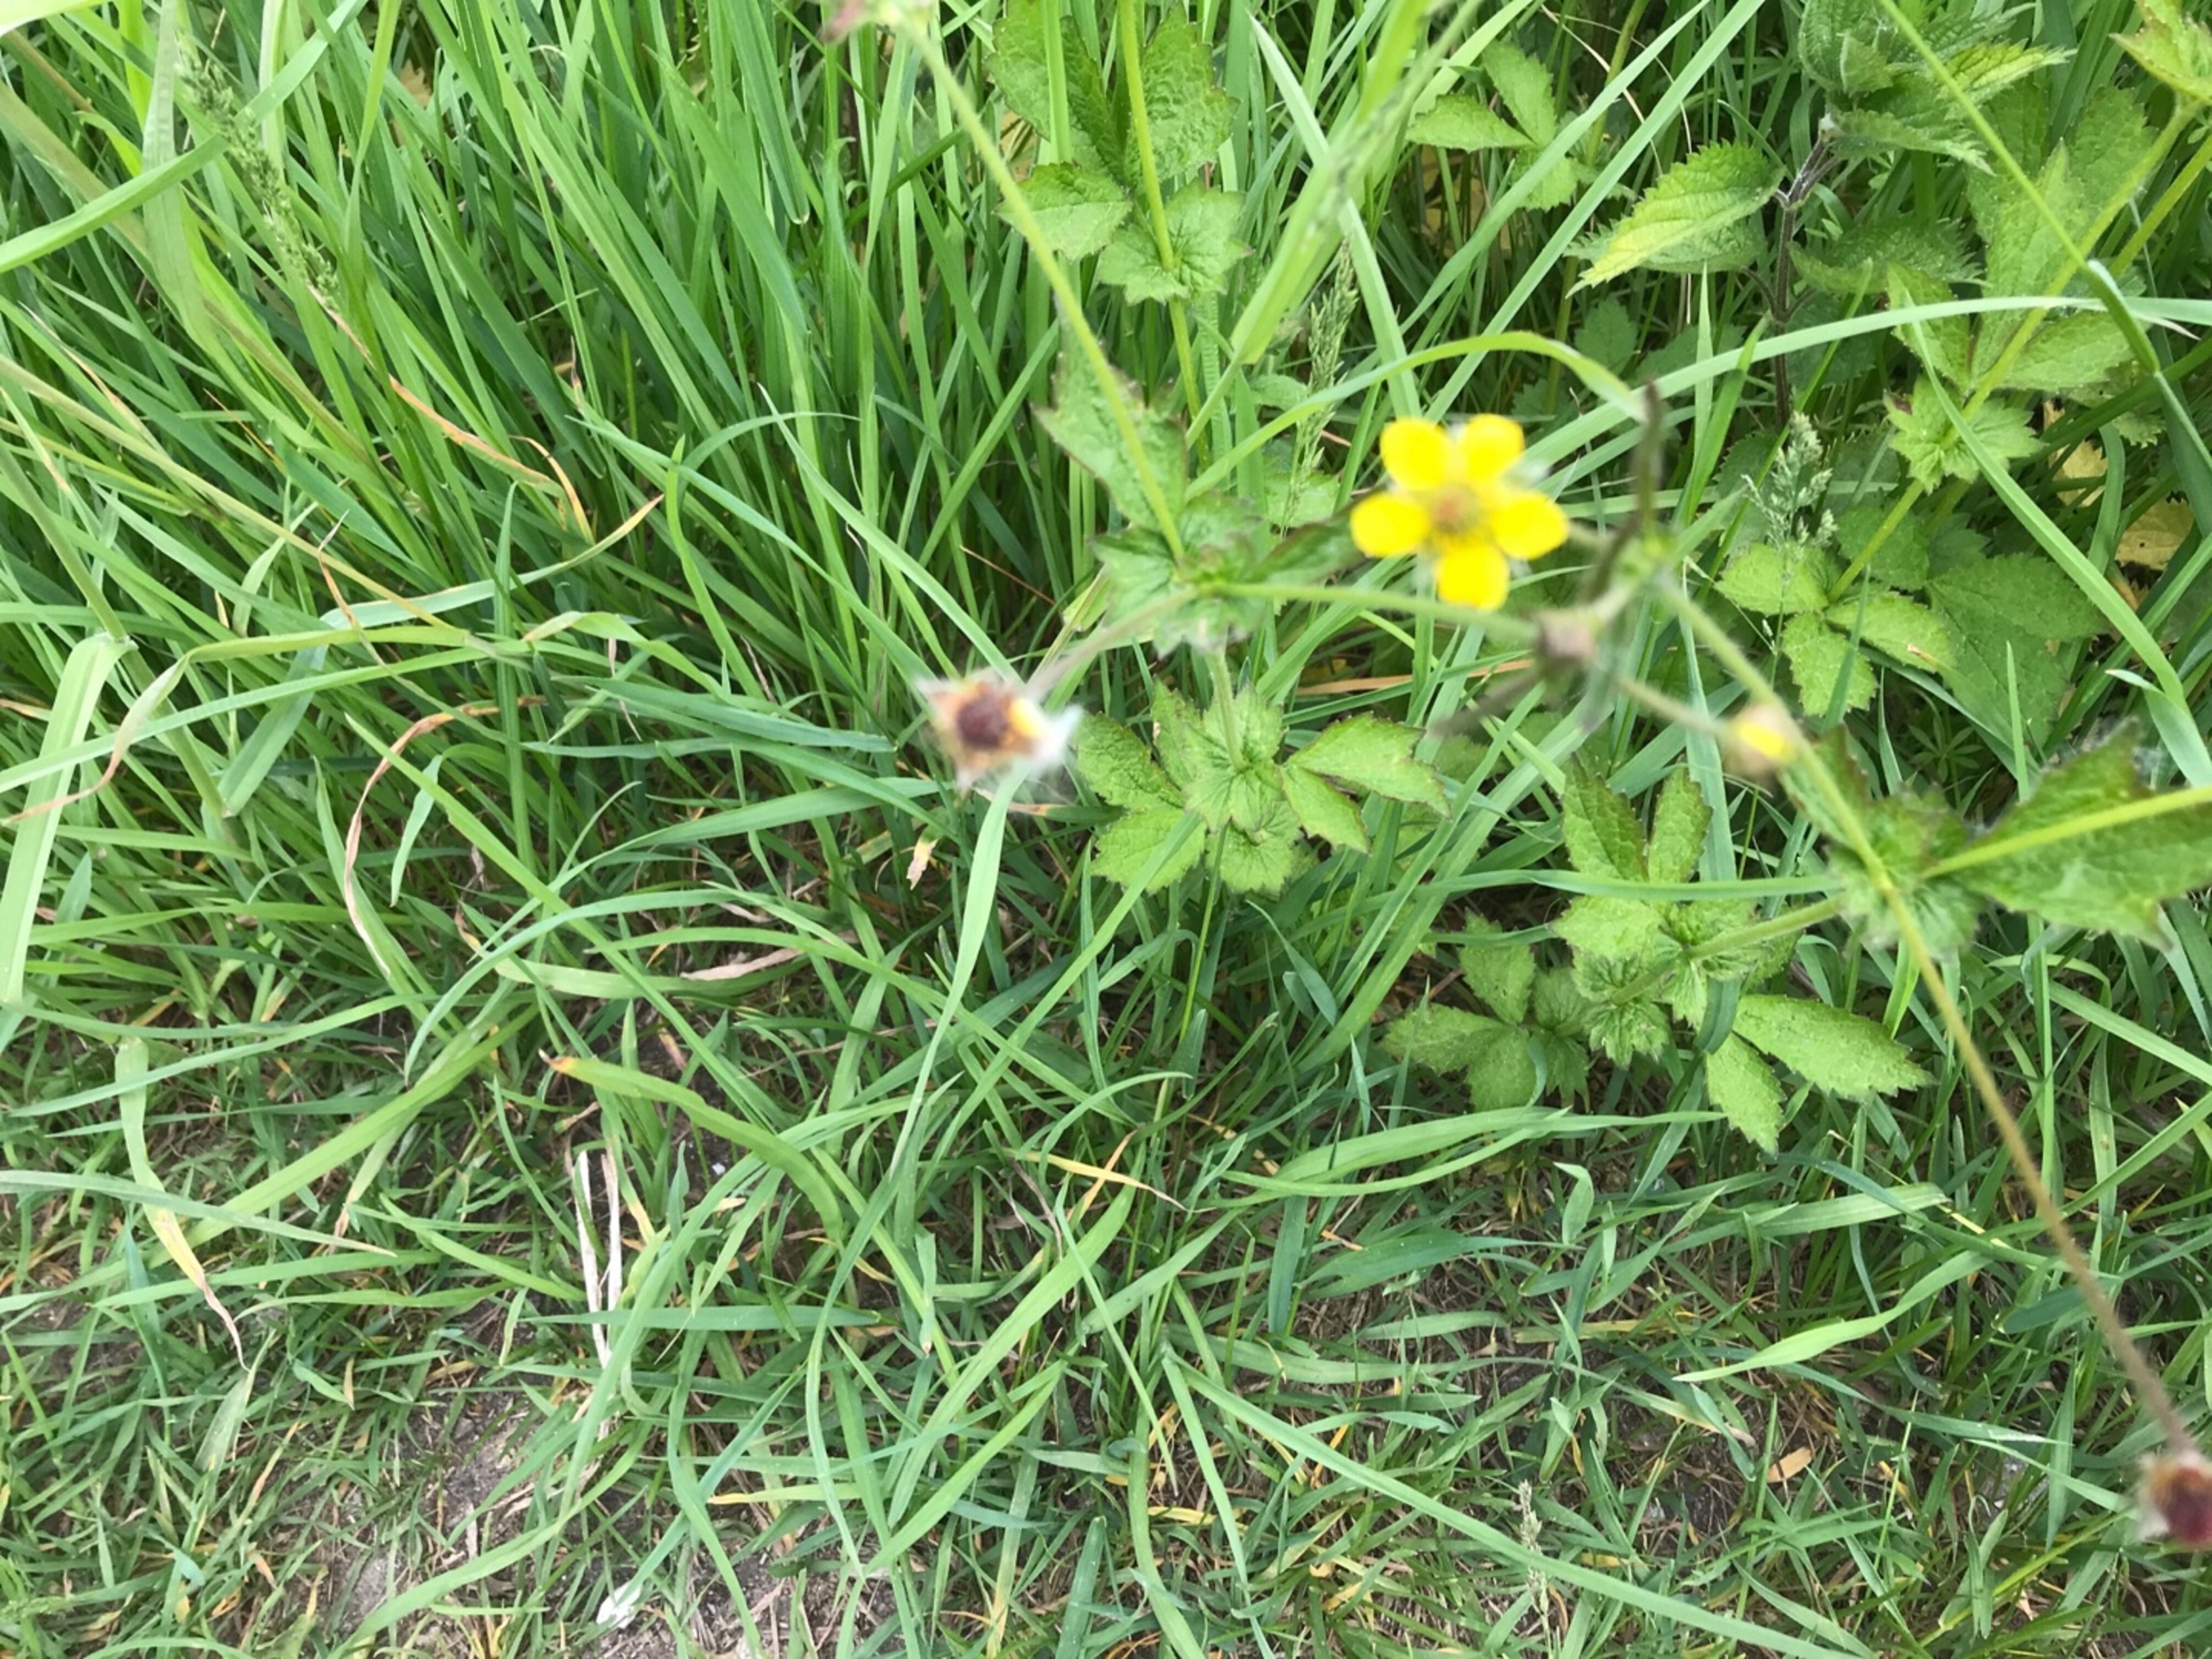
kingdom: Plantae
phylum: Tracheophyta
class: Magnoliopsida
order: Rosales
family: Rosaceae
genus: Geum
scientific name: Geum urbanum
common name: Feber-nellikerod
